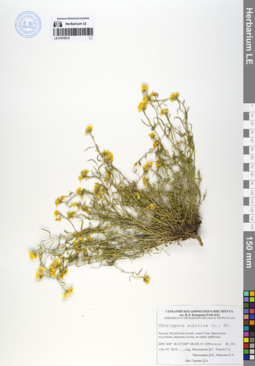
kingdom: Plantae
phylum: Tracheophyta
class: Magnoliopsida
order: Brassicales
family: Brassicaceae
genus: Chorispora
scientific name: Chorispora sibirica
